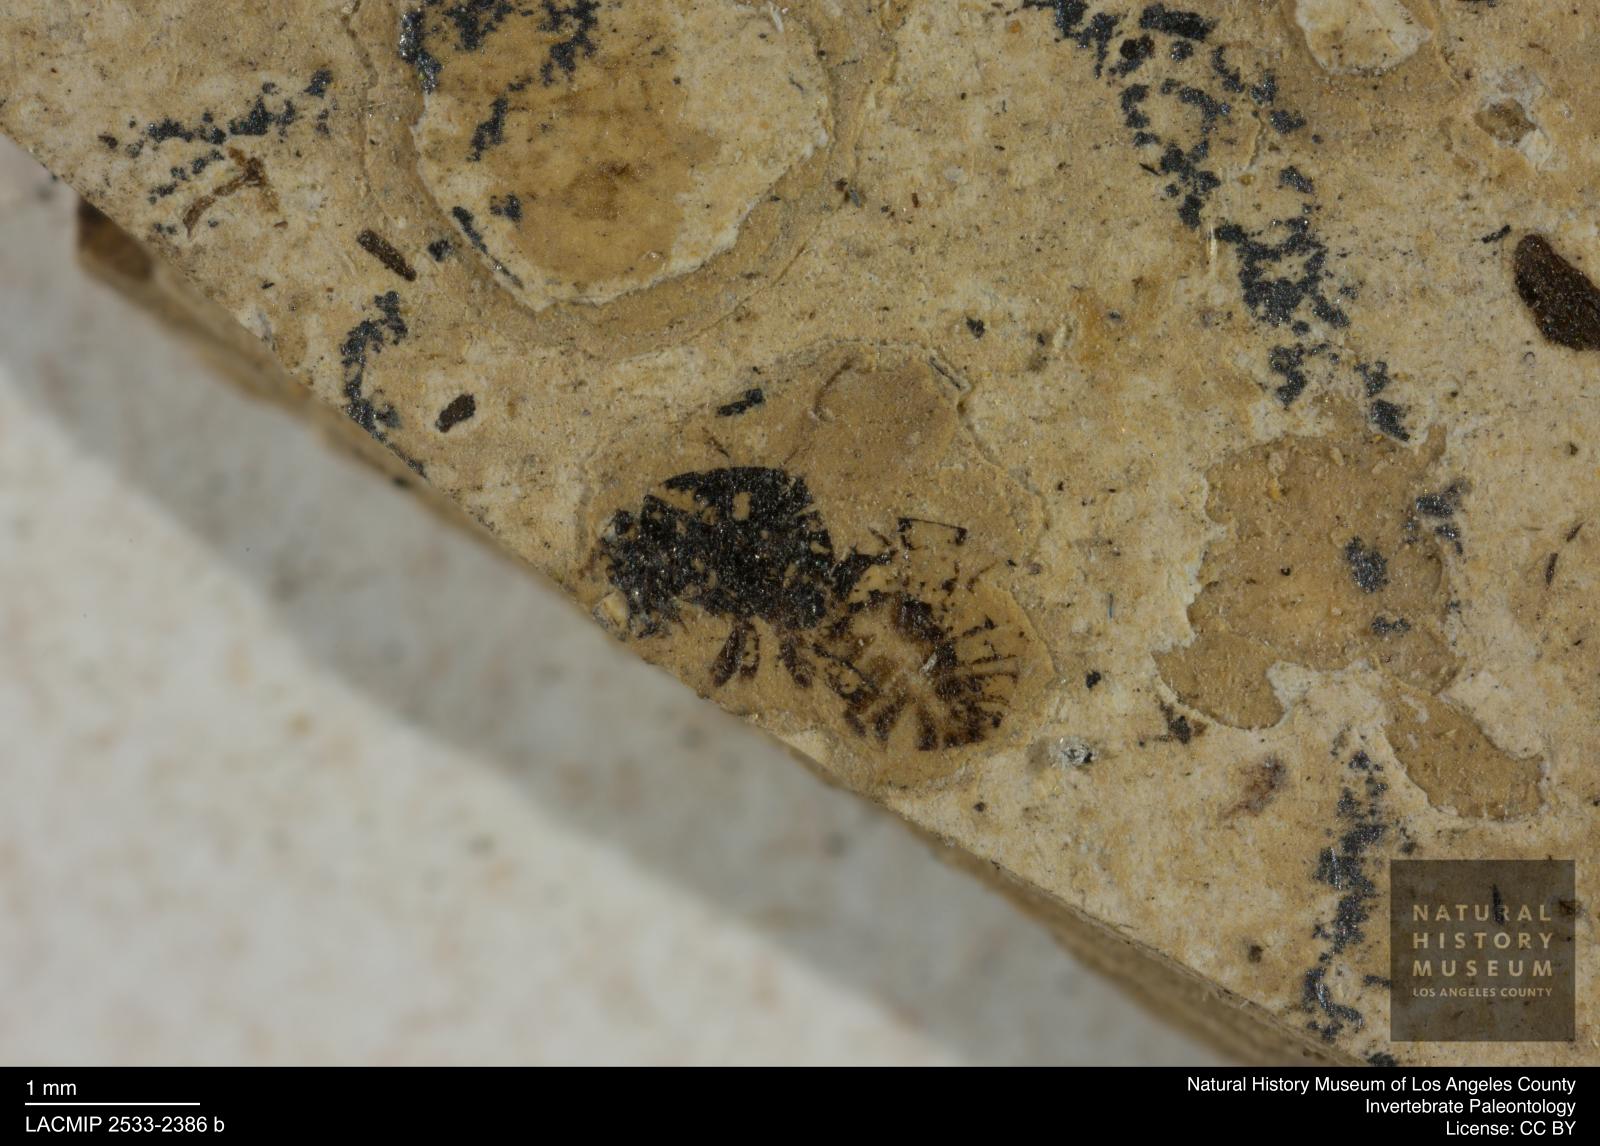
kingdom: Animalia
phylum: Arthropoda
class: Insecta
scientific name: Insecta
